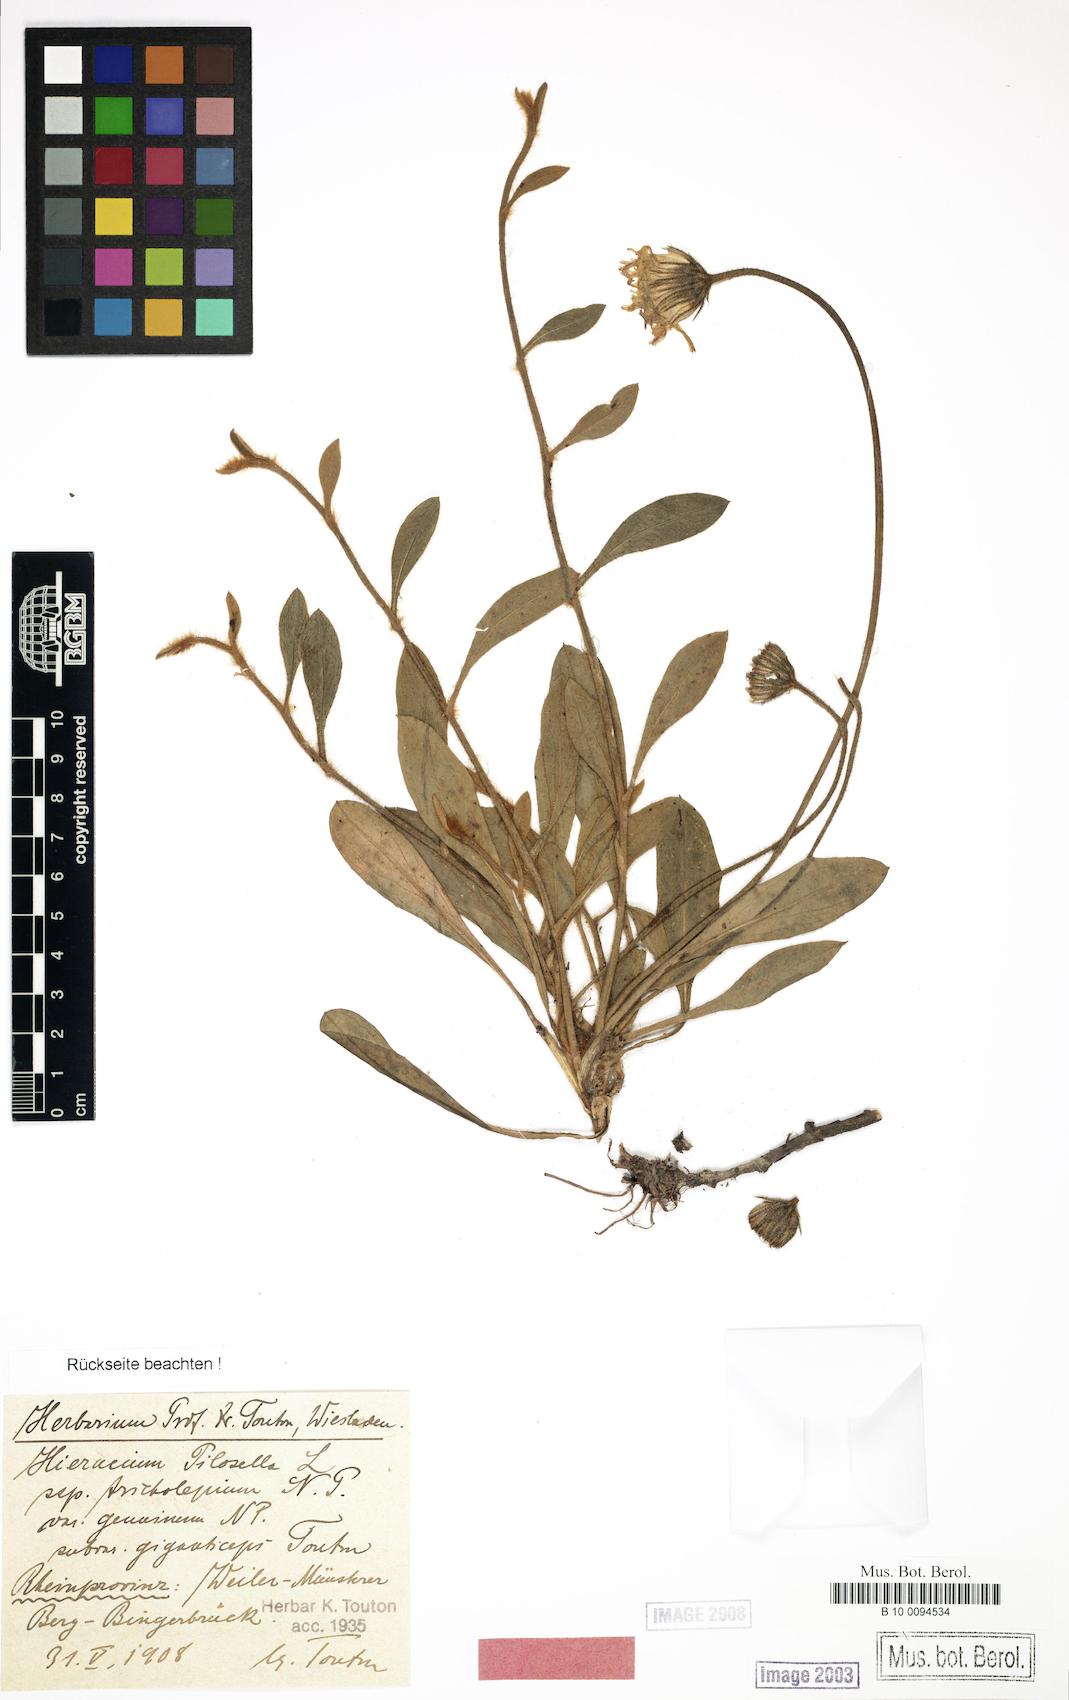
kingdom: Plantae
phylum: Tracheophyta
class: Magnoliopsida
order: Asterales
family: Asteraceae
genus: Pilosella
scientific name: Pilosella officinarum
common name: Mouse-ear hawkweed
